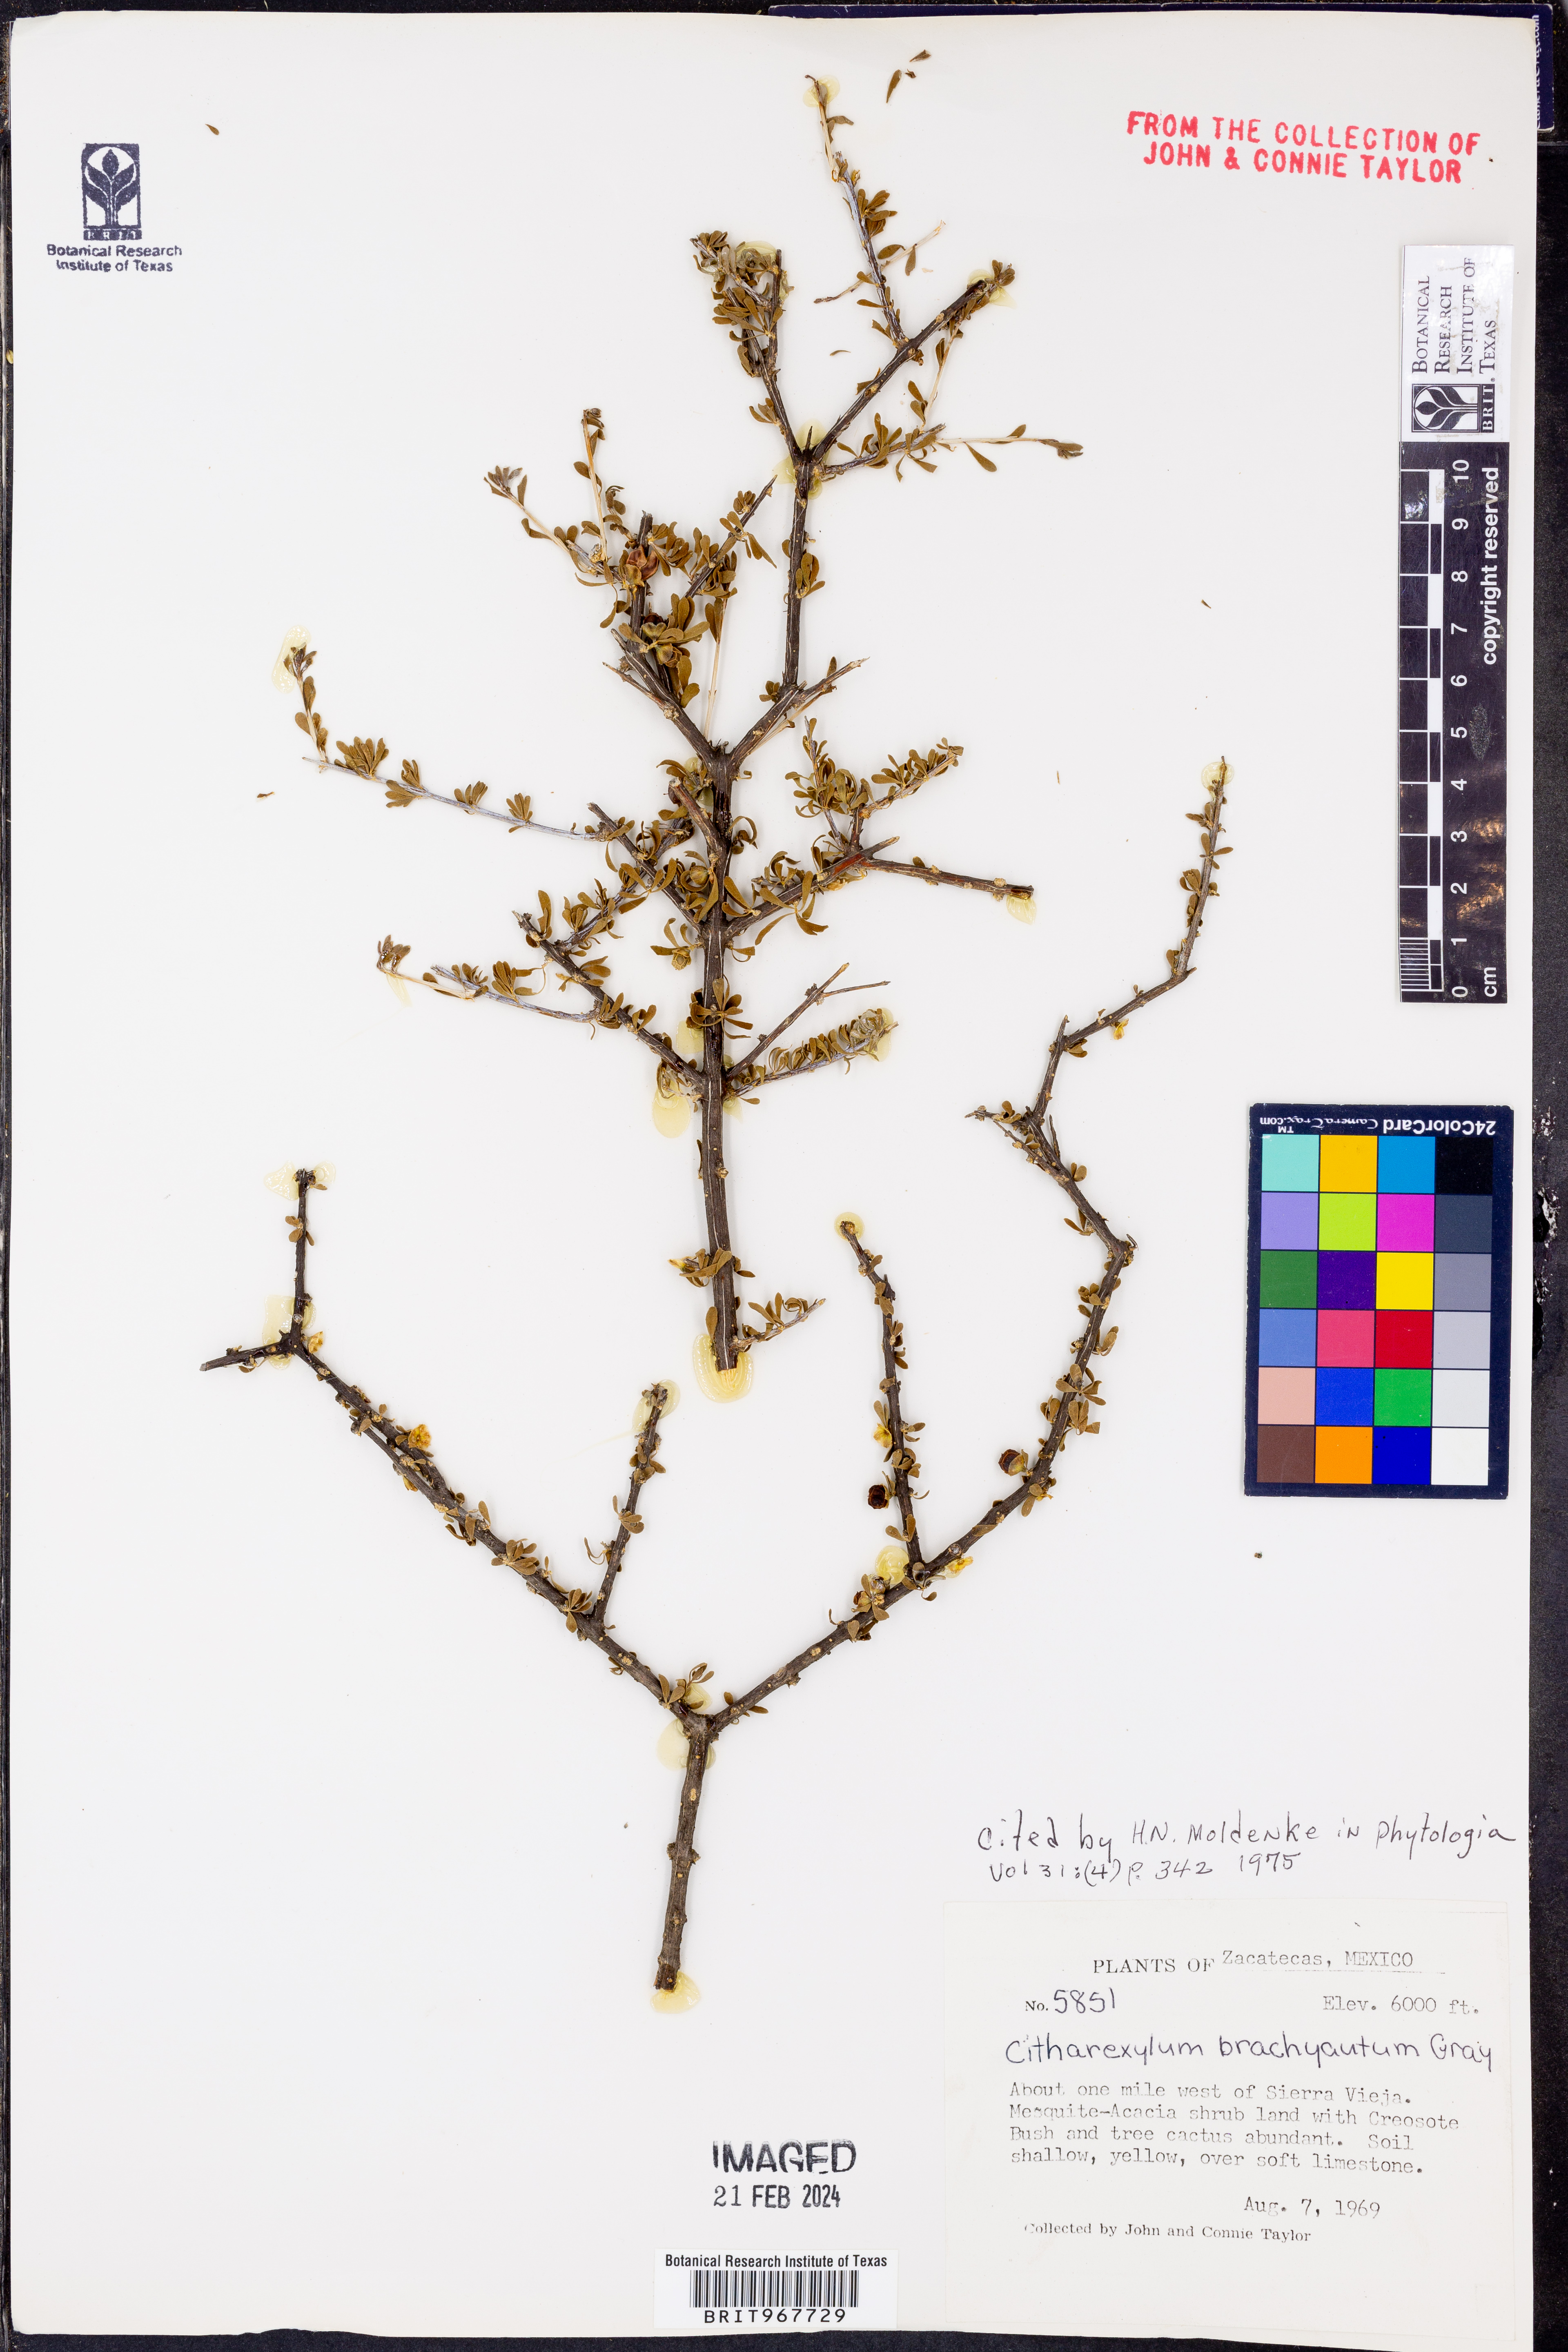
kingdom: Plantae
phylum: Tracheophyta
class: Magnoliopsida
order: Lamiales
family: Verbenaceae
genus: Citharexylum
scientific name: Citharexylum
